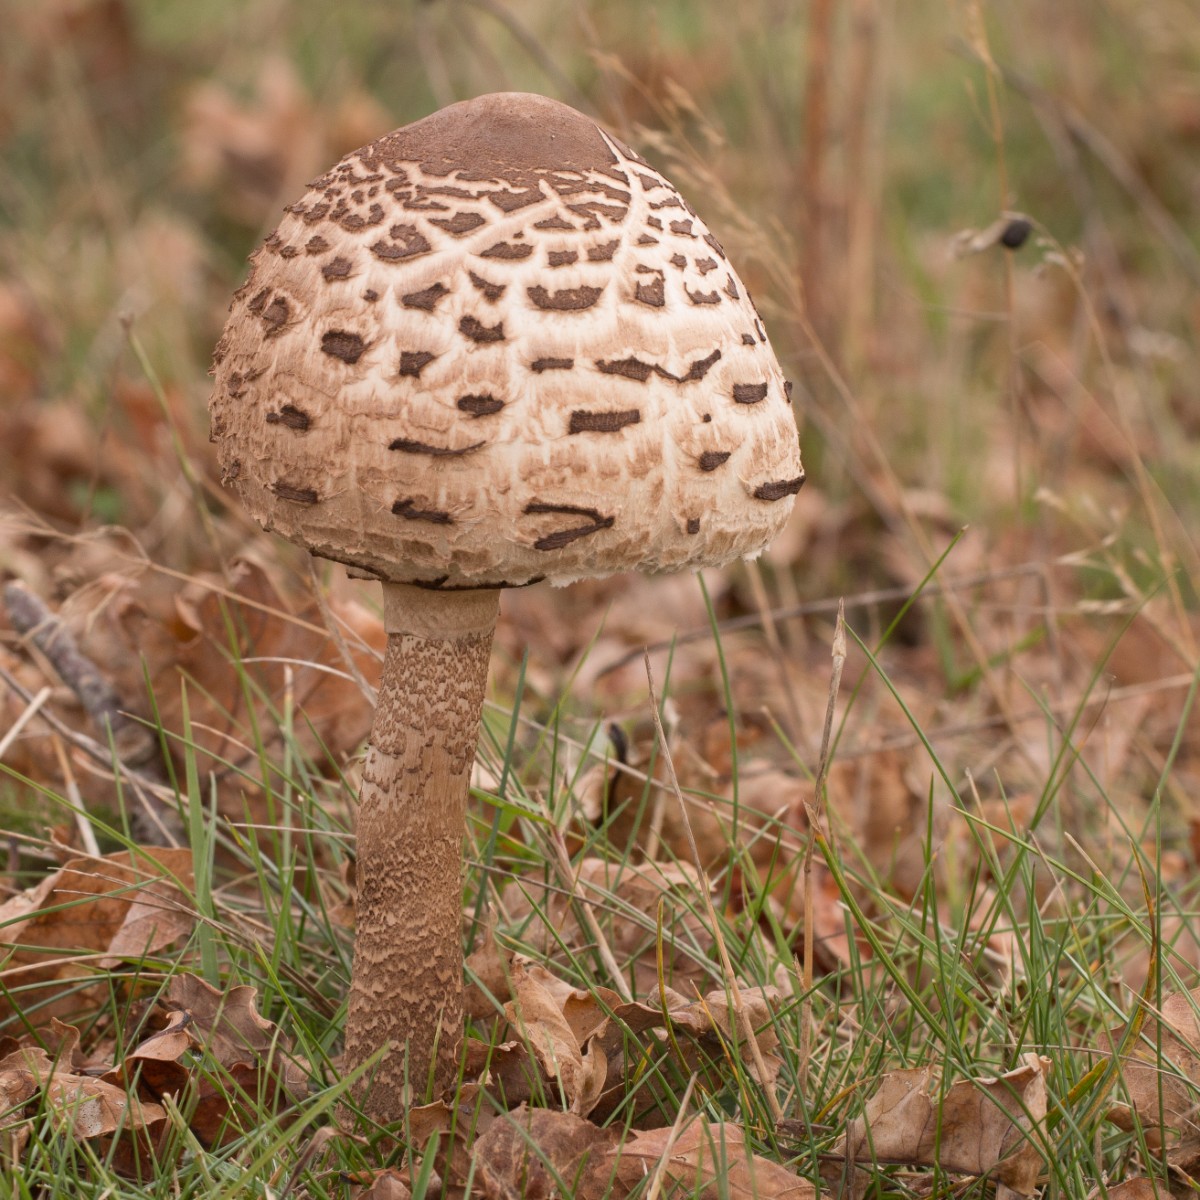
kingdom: Fungi
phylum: Basidiomycota
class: Agaricomycetes
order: Agaricales
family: Agaricaceae
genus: Macrolepiota
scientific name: Macrolepiota procera
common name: stor kæmpeparasolhat
